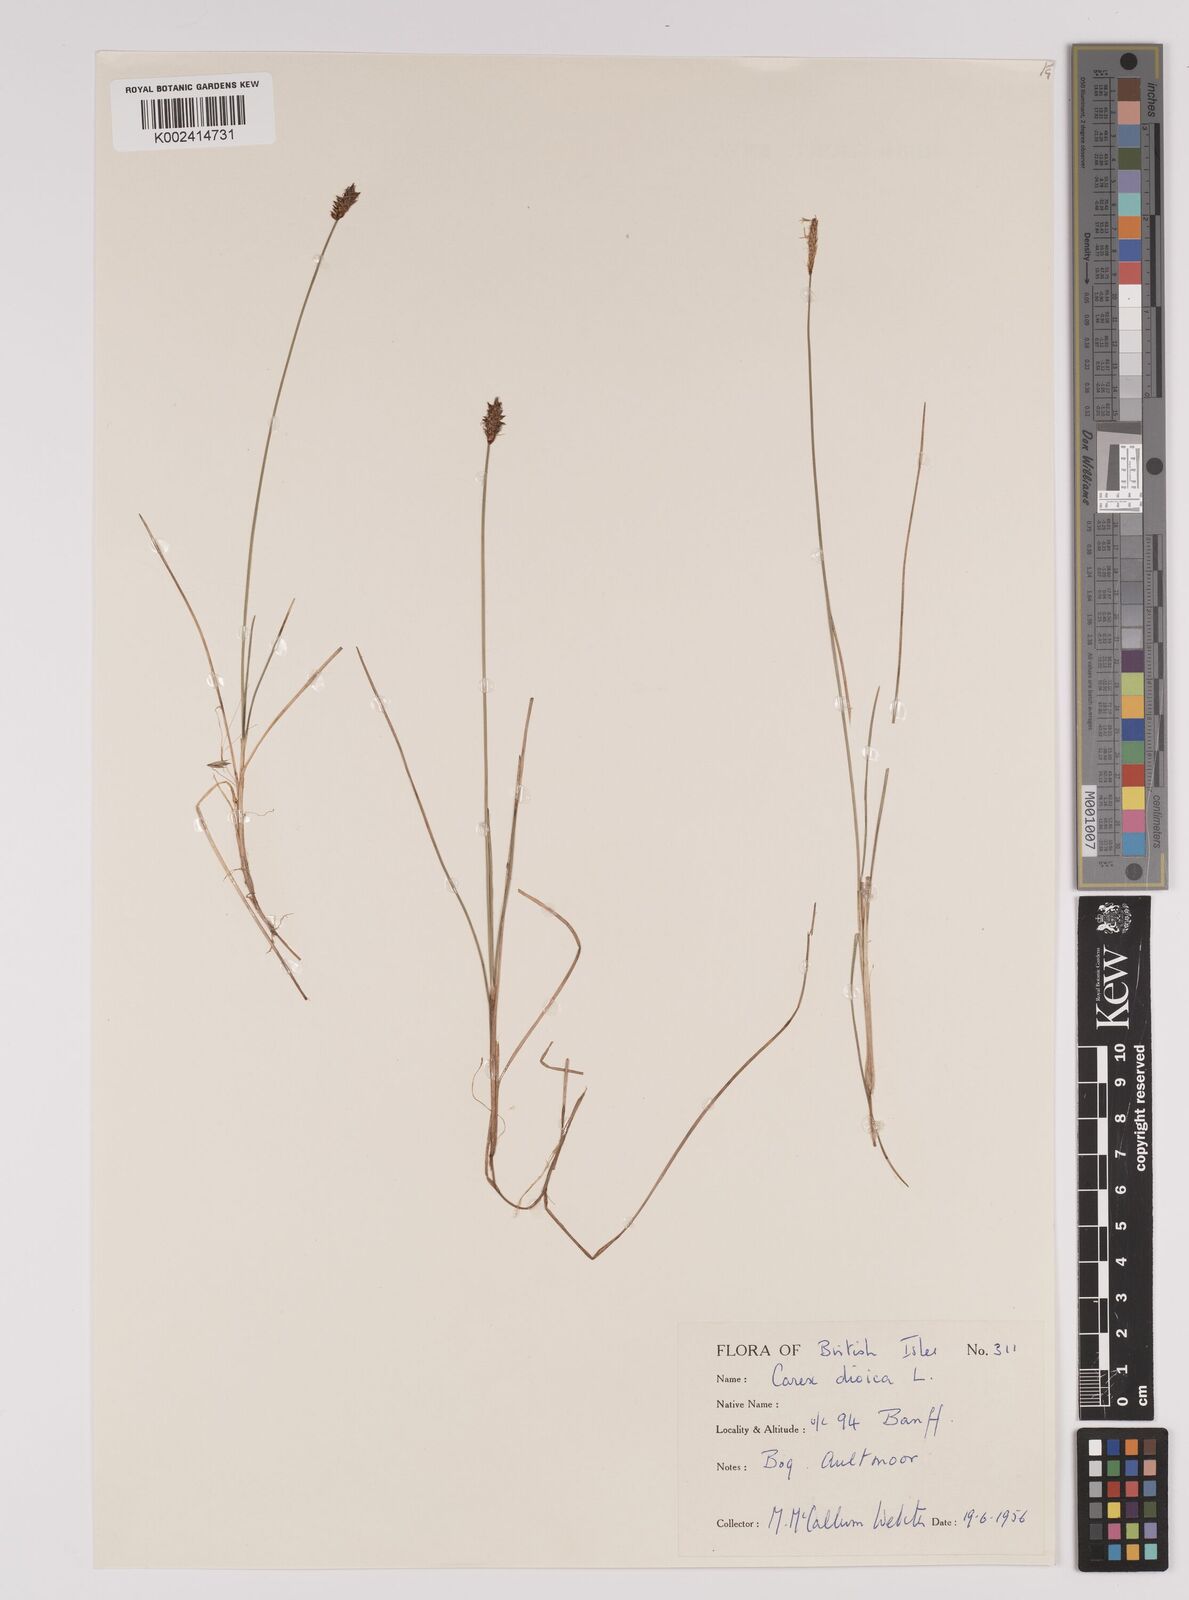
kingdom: Plantae
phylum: Tracheophyta
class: Liliopsida
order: Poales
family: Cyperaceae
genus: Carex
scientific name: Carex dioica
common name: Dioecious sedge
